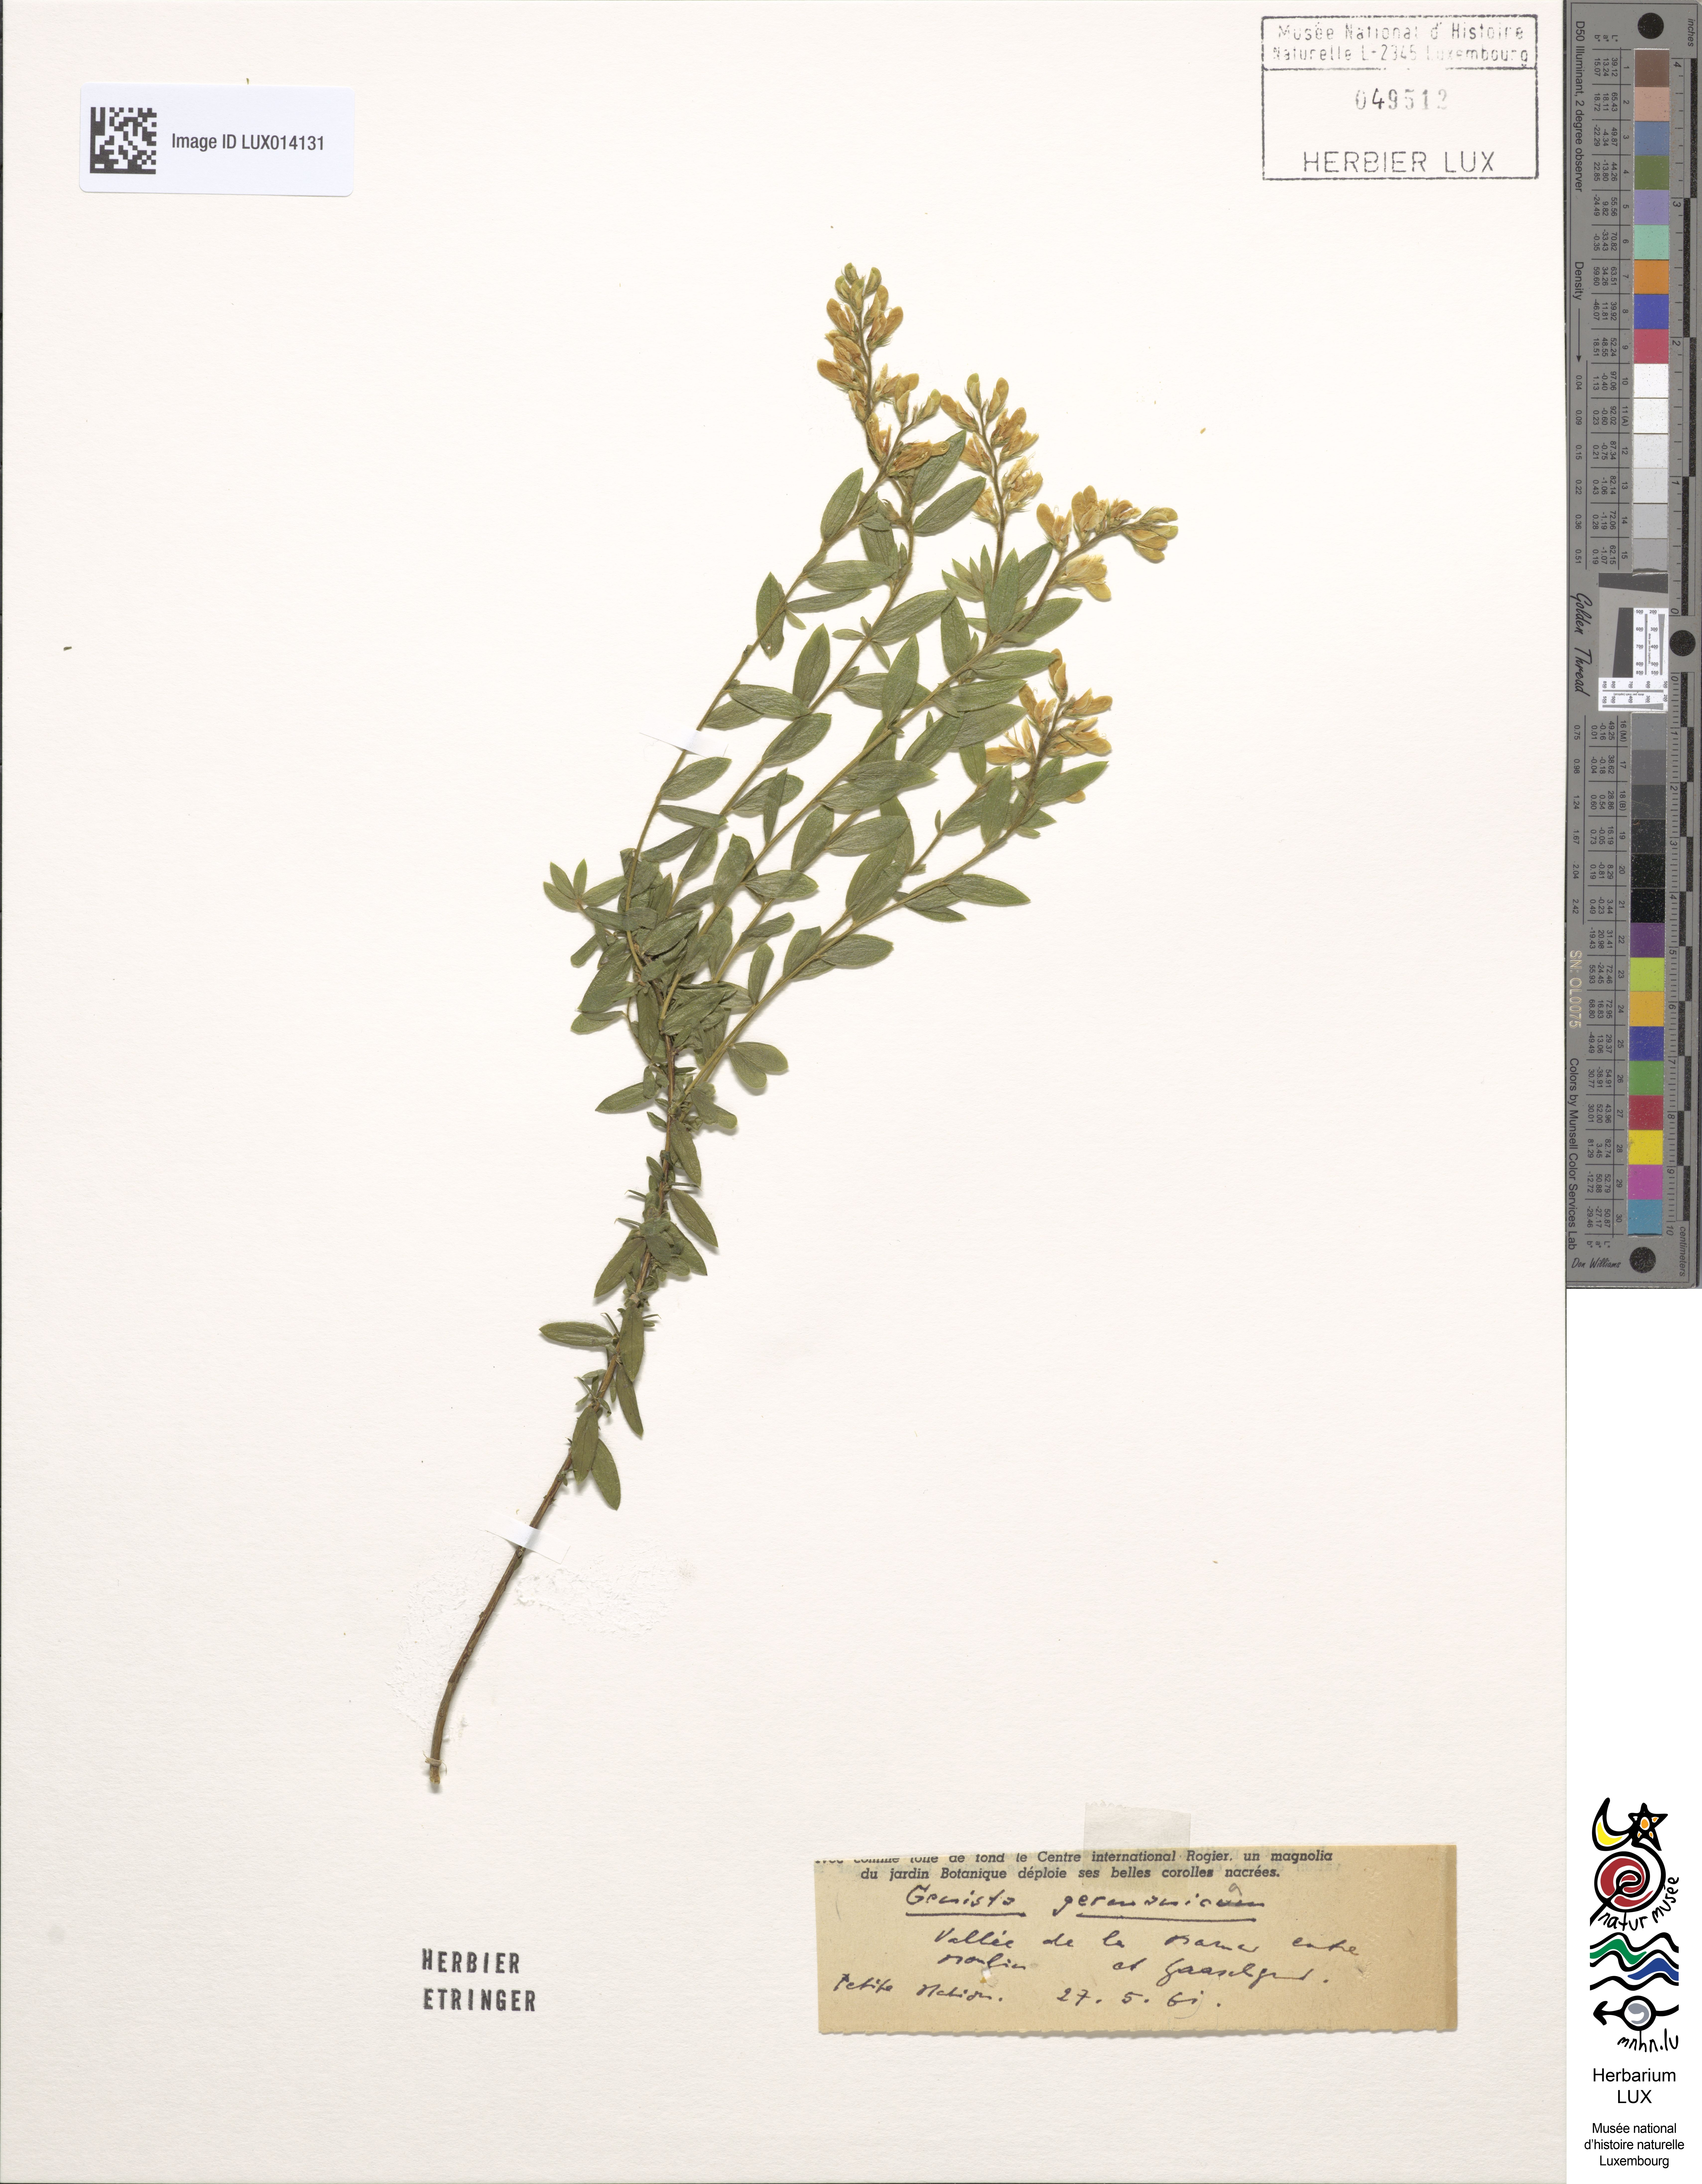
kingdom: Plantae
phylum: Tracheophyta
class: Magnoliopsida
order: Fabales
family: Fabaceae
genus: Genista
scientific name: Genista germanica
